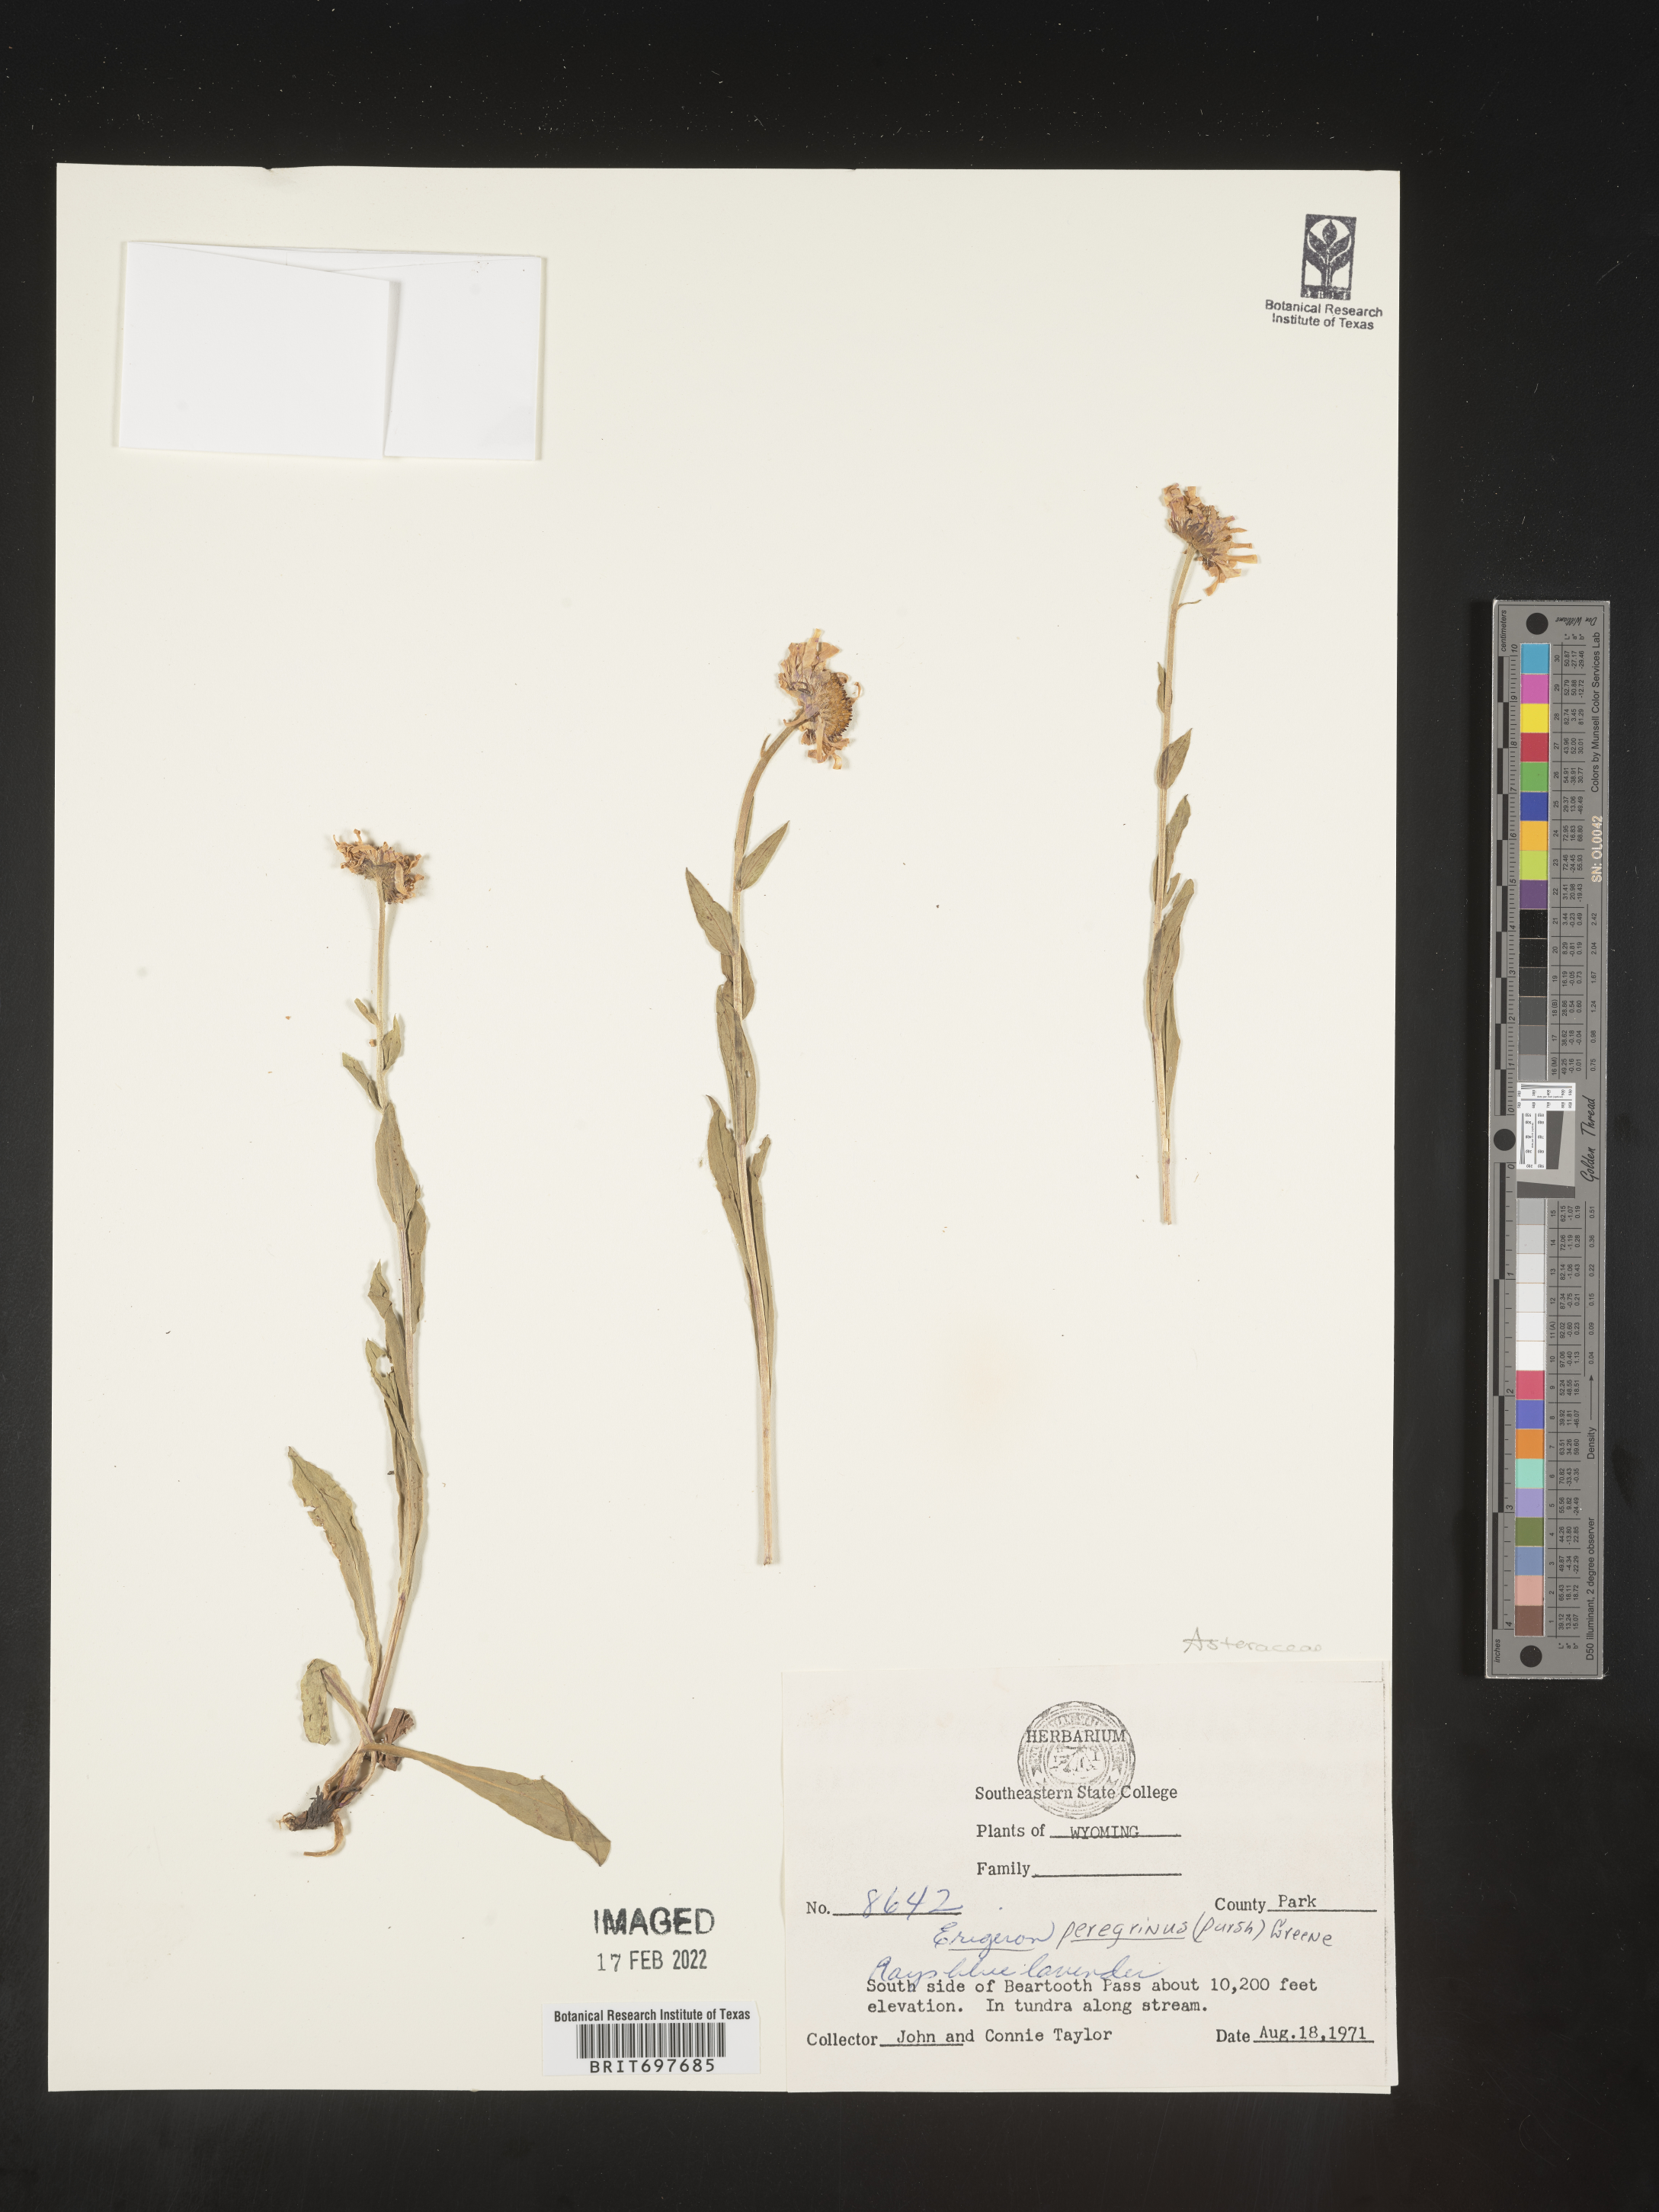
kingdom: Plantae
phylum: Tracheophyta
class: Magnoliopsida
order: Asterales
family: Asteraceae
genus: Erigeron
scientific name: Erigeron glacialis
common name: Subalpine fleabane
